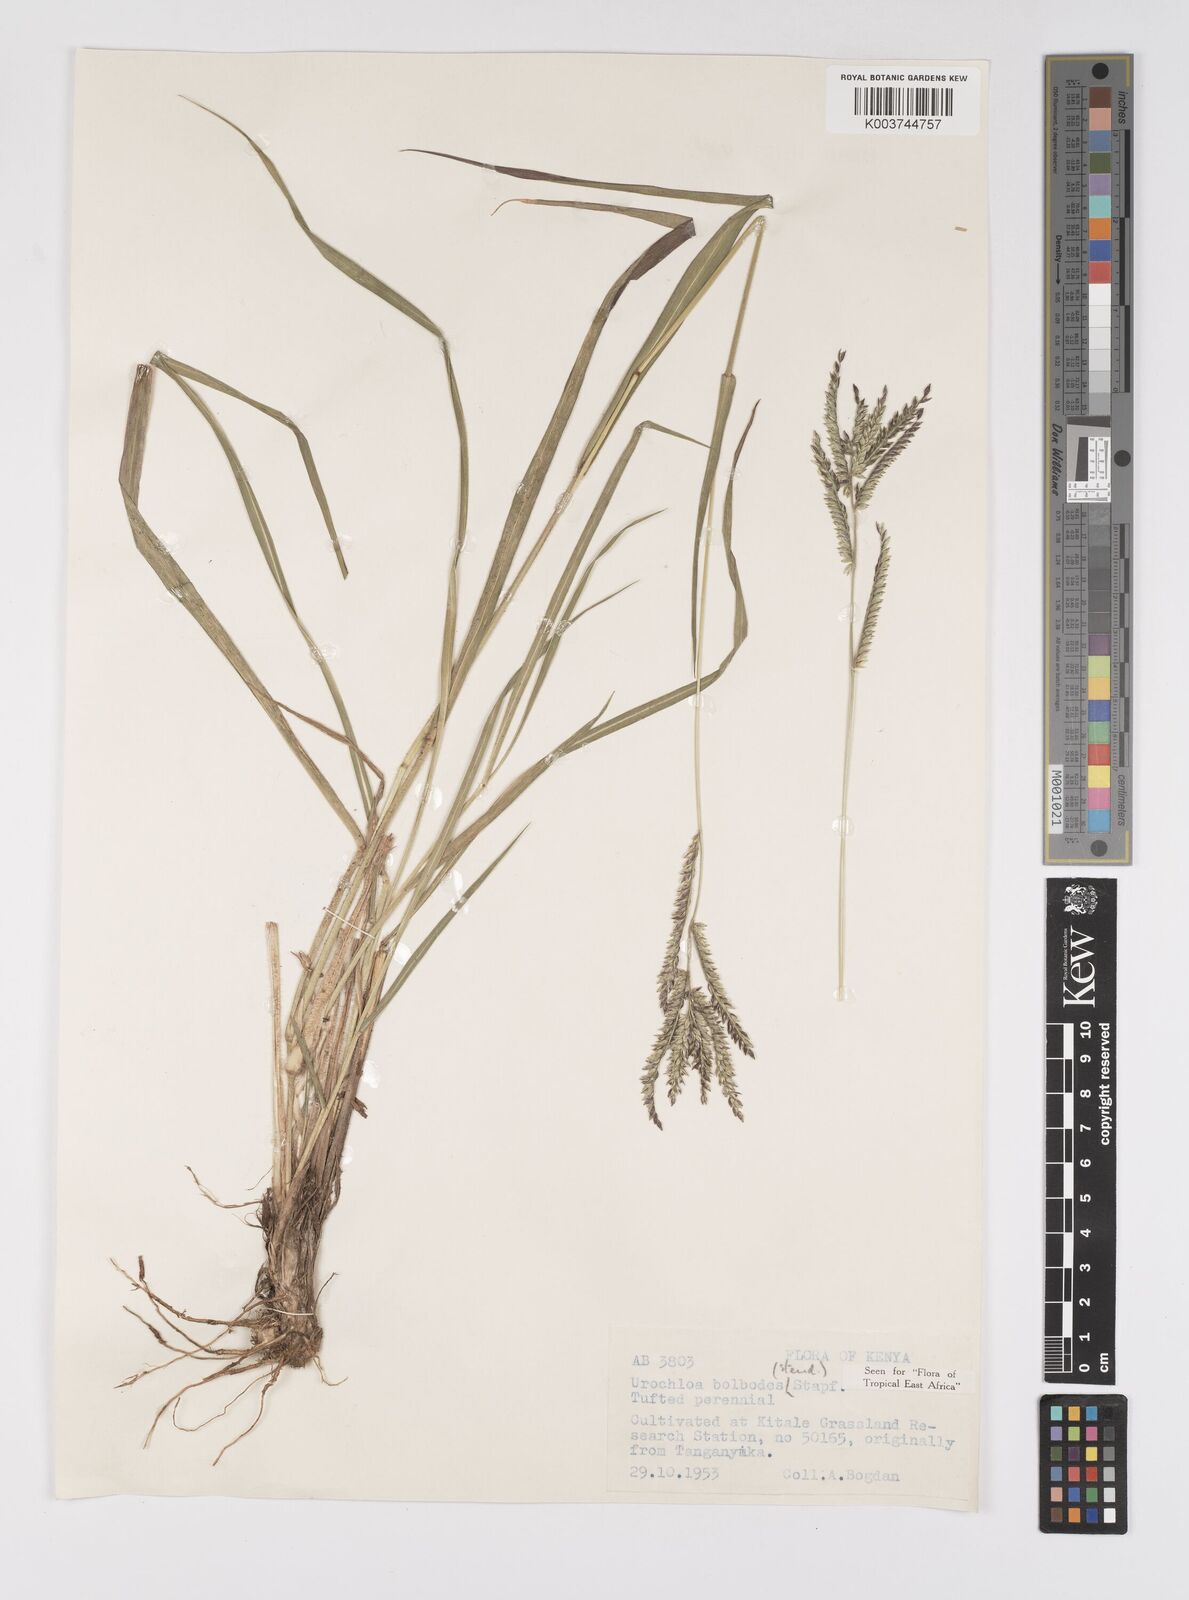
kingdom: Plantae
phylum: Tracheophyta
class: Liliopsida
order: Poales
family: Poaceae
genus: Urochloa
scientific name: Urochloa oligotricha
